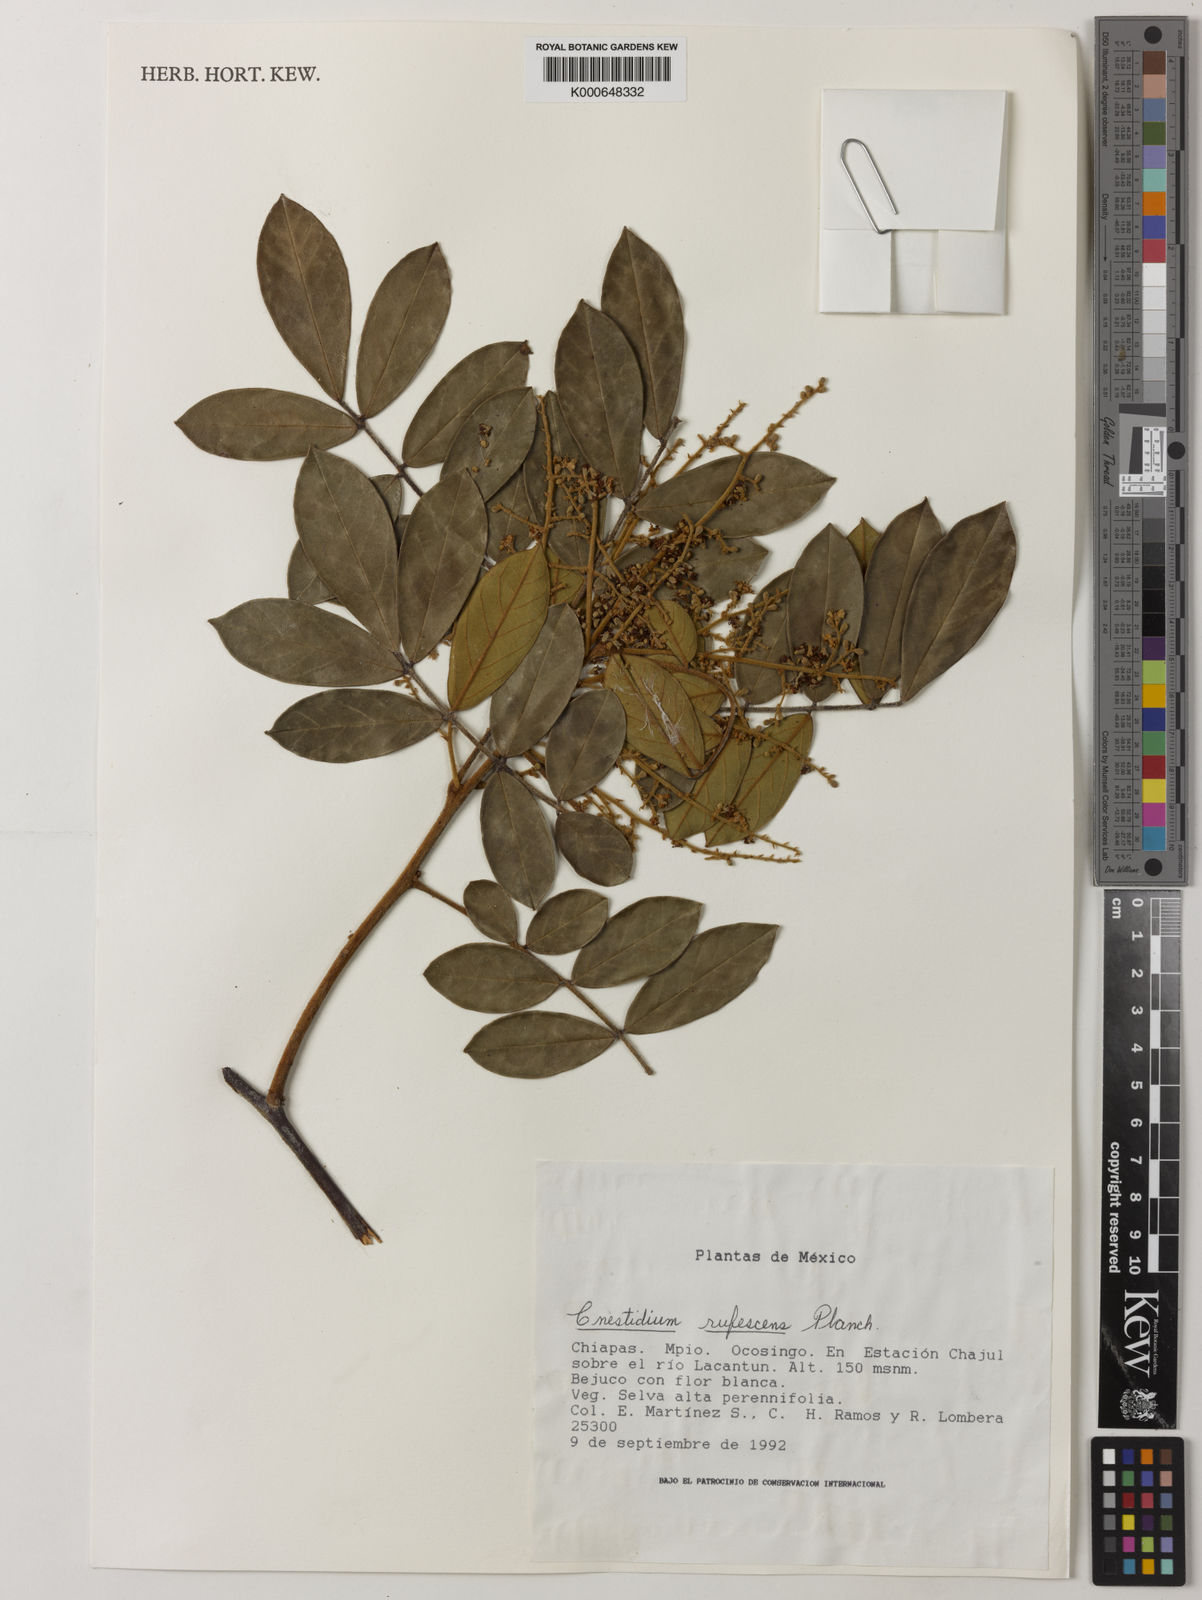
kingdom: Plantae
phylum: Tracheophyta
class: Magnoliopsida
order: Oxalidales
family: Connaraceae
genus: Cnestidium
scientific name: Cnestidium rufescens
